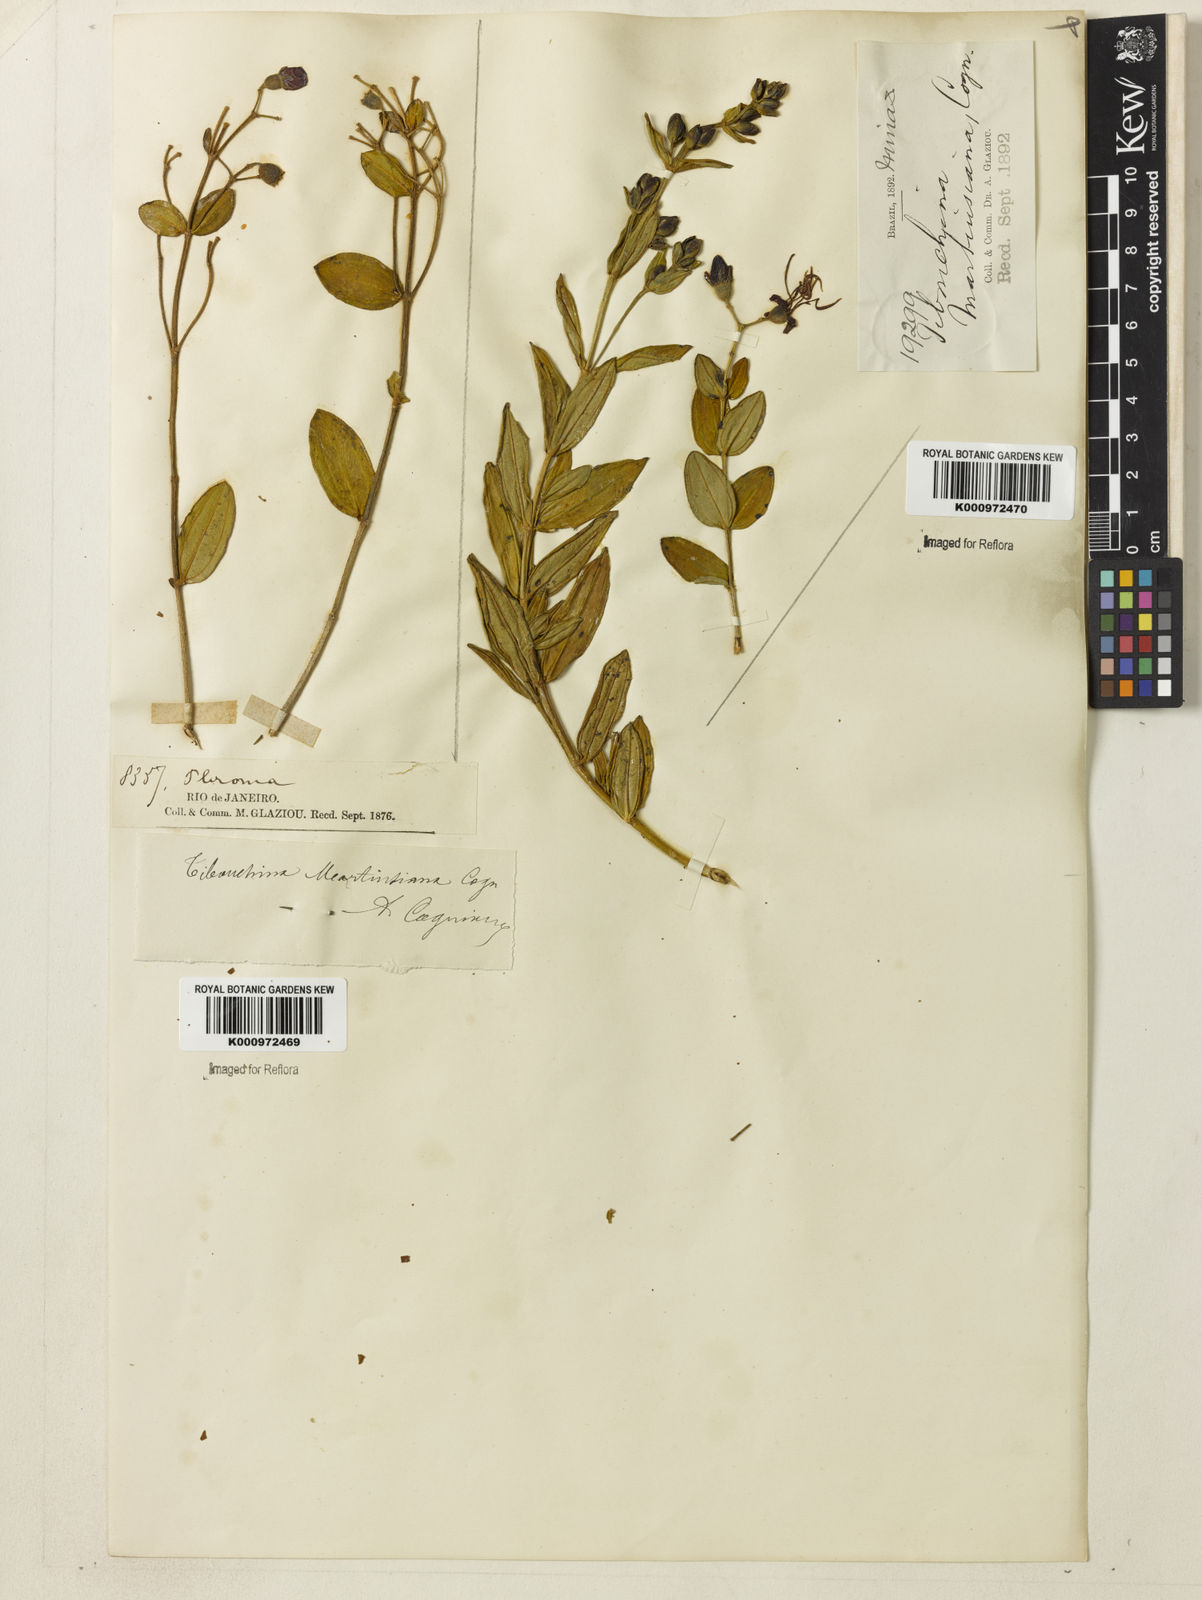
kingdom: Plantae
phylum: Tracheophyta
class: Magnoliopsida
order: Myrtales
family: Melastomataceae
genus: Pleroma
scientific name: Pleroma martiusianum
